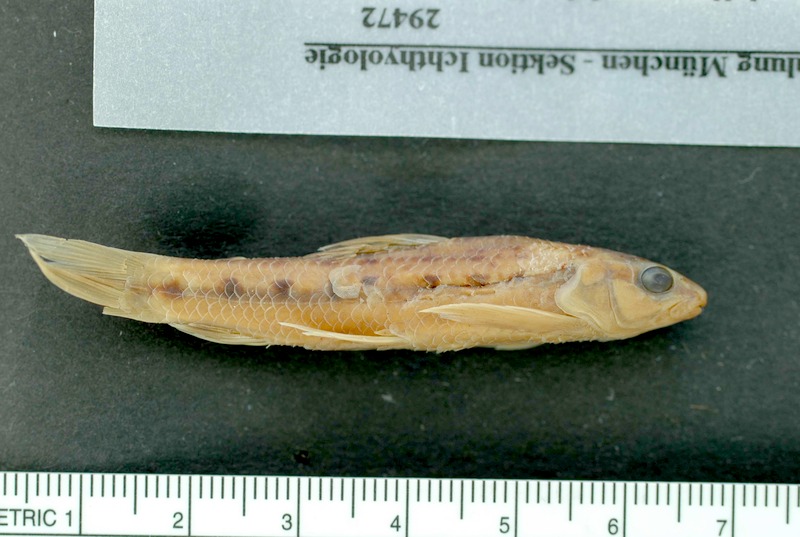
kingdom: Animalia
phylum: Chordata
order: Characiformes
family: Crenuchidae
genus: Characidium
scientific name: Characidium schindleri
